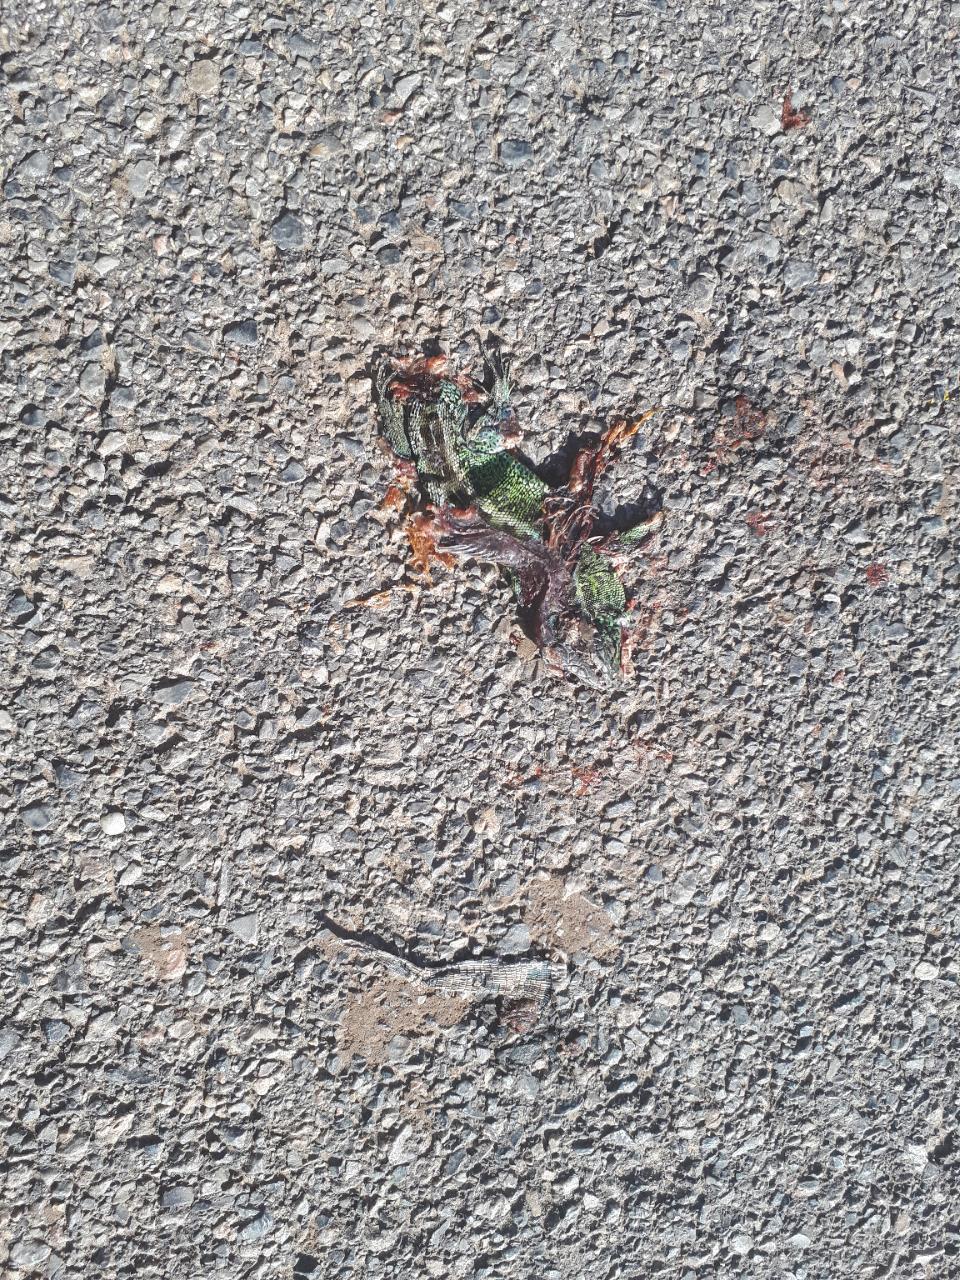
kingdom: Animalia
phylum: Chordata
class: Squamata
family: Lacertidae
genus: Lacerta
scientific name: Lacerta agilis
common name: Sand lizard
